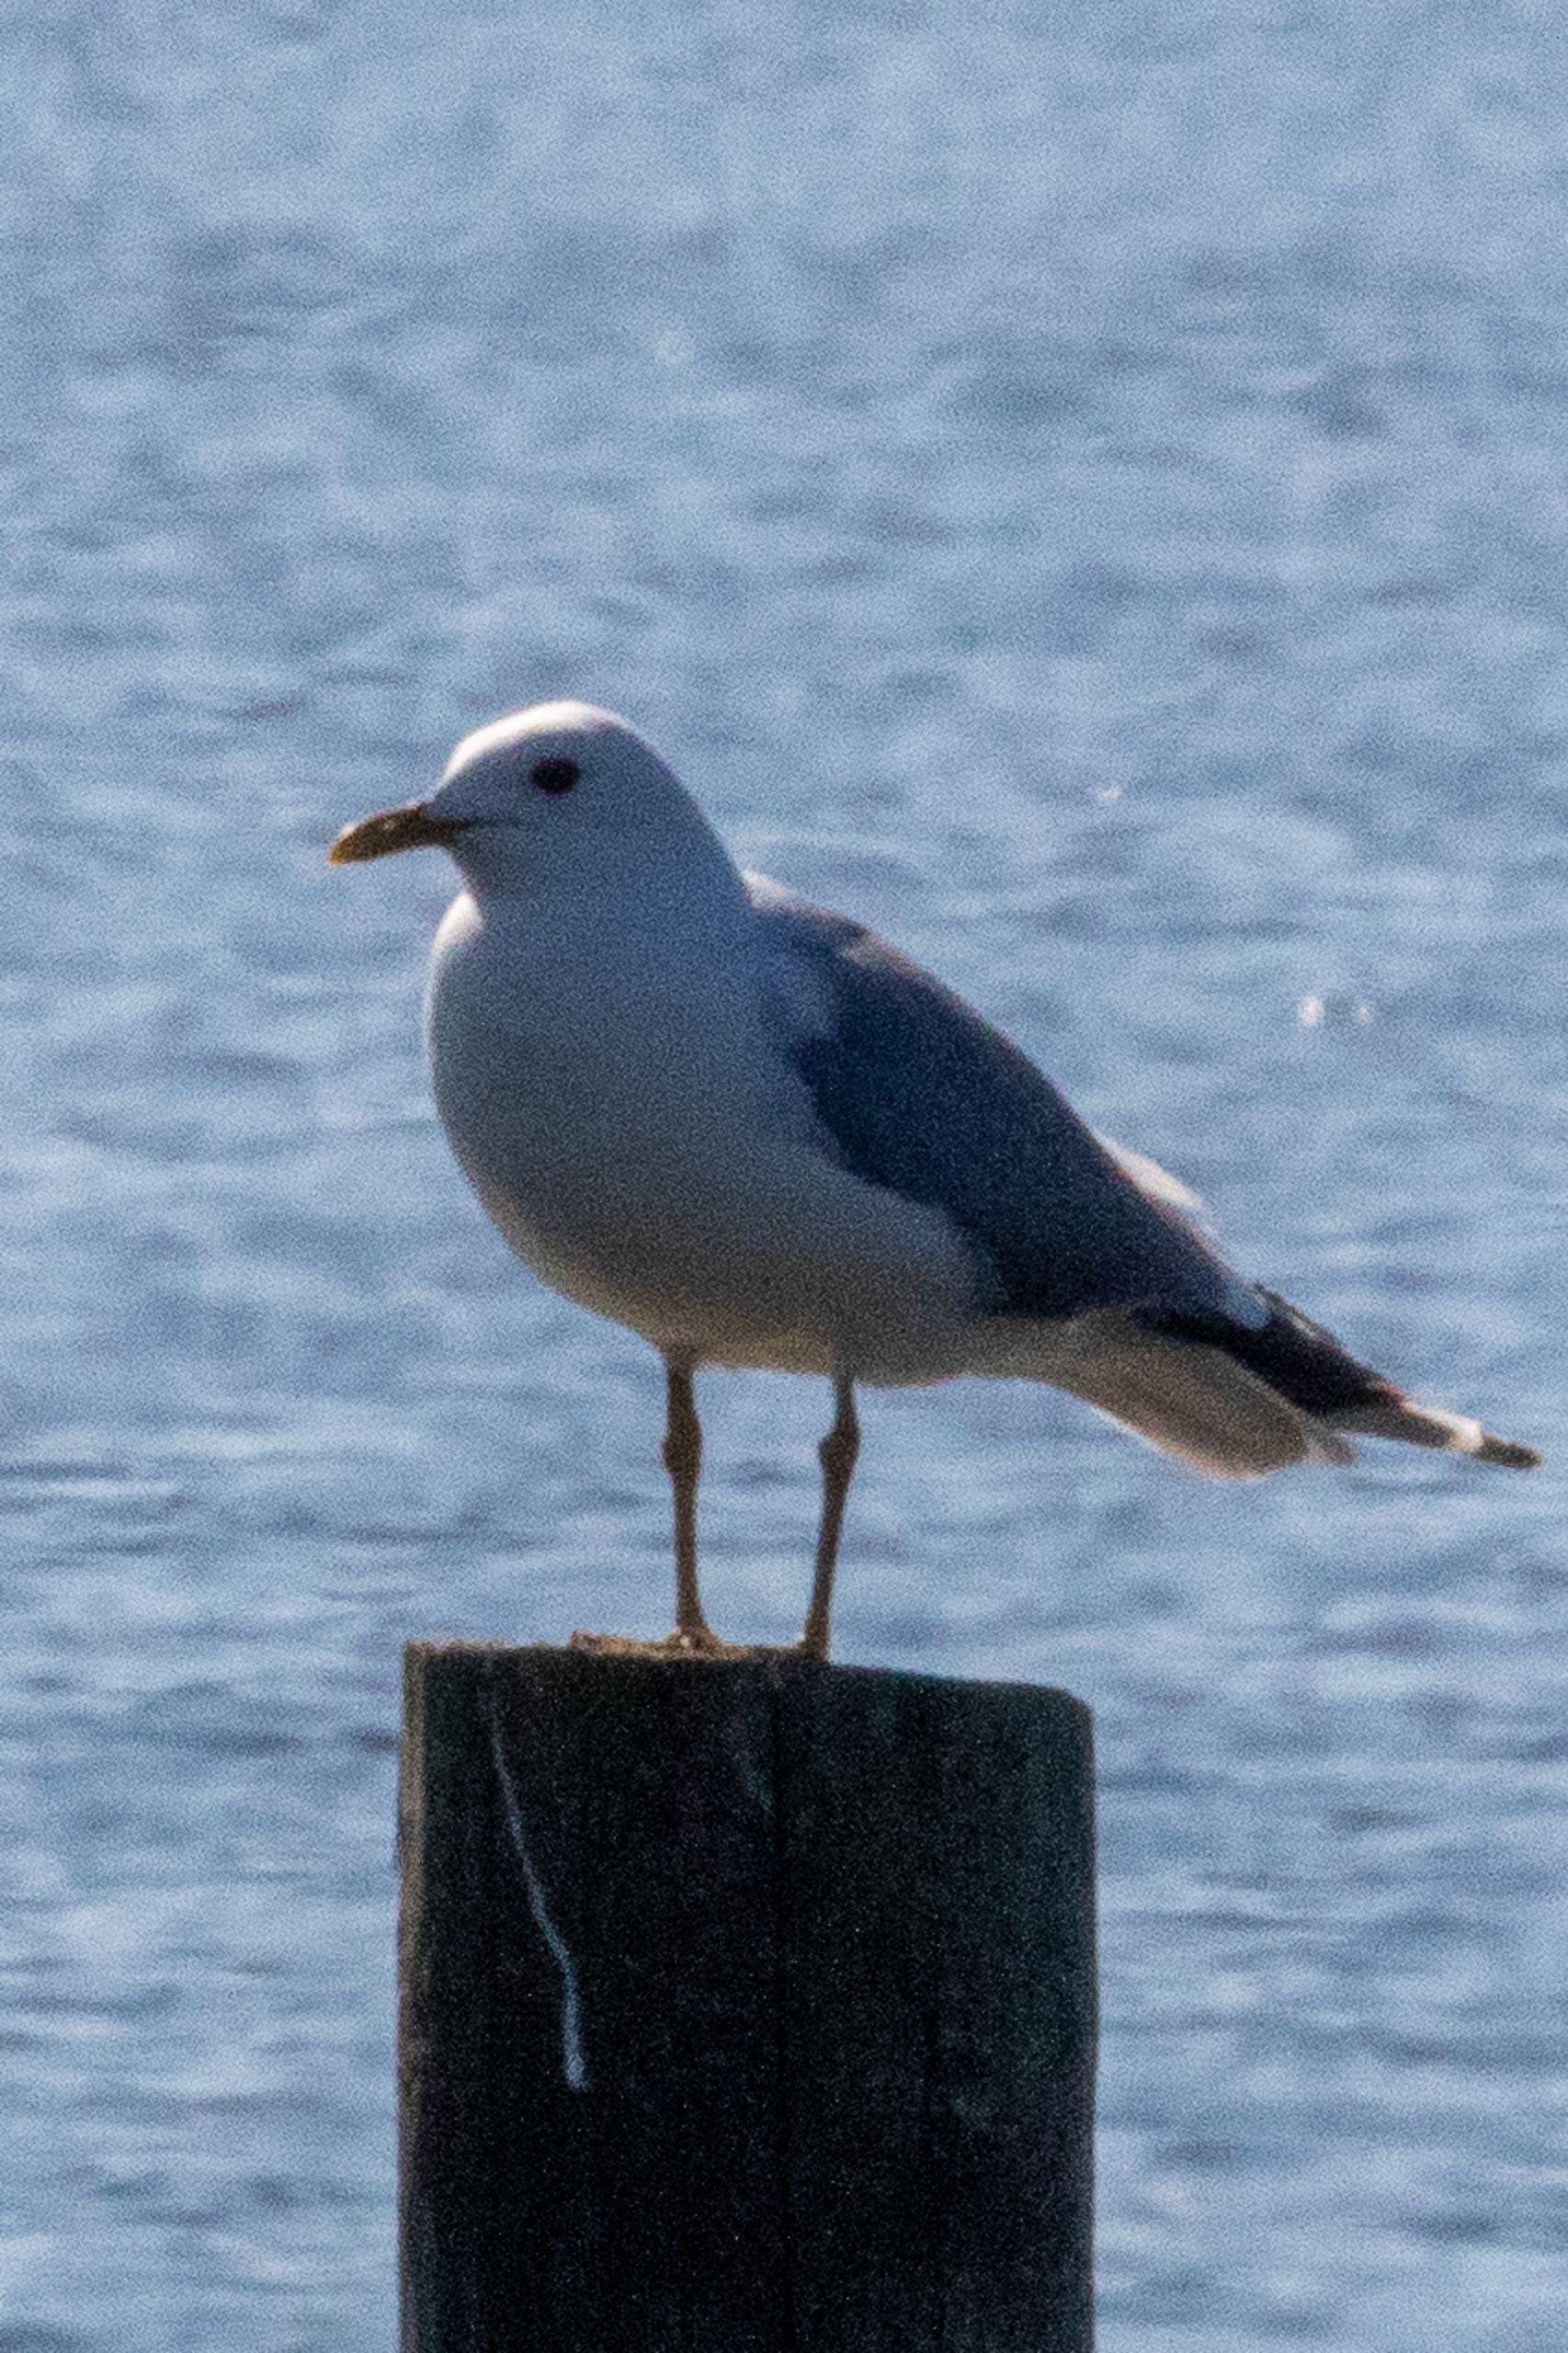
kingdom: Animalia
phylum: Chordata
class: Aves
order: Charadriiformes
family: Laridae
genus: Larus
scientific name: Larus canus
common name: Stormmåge
